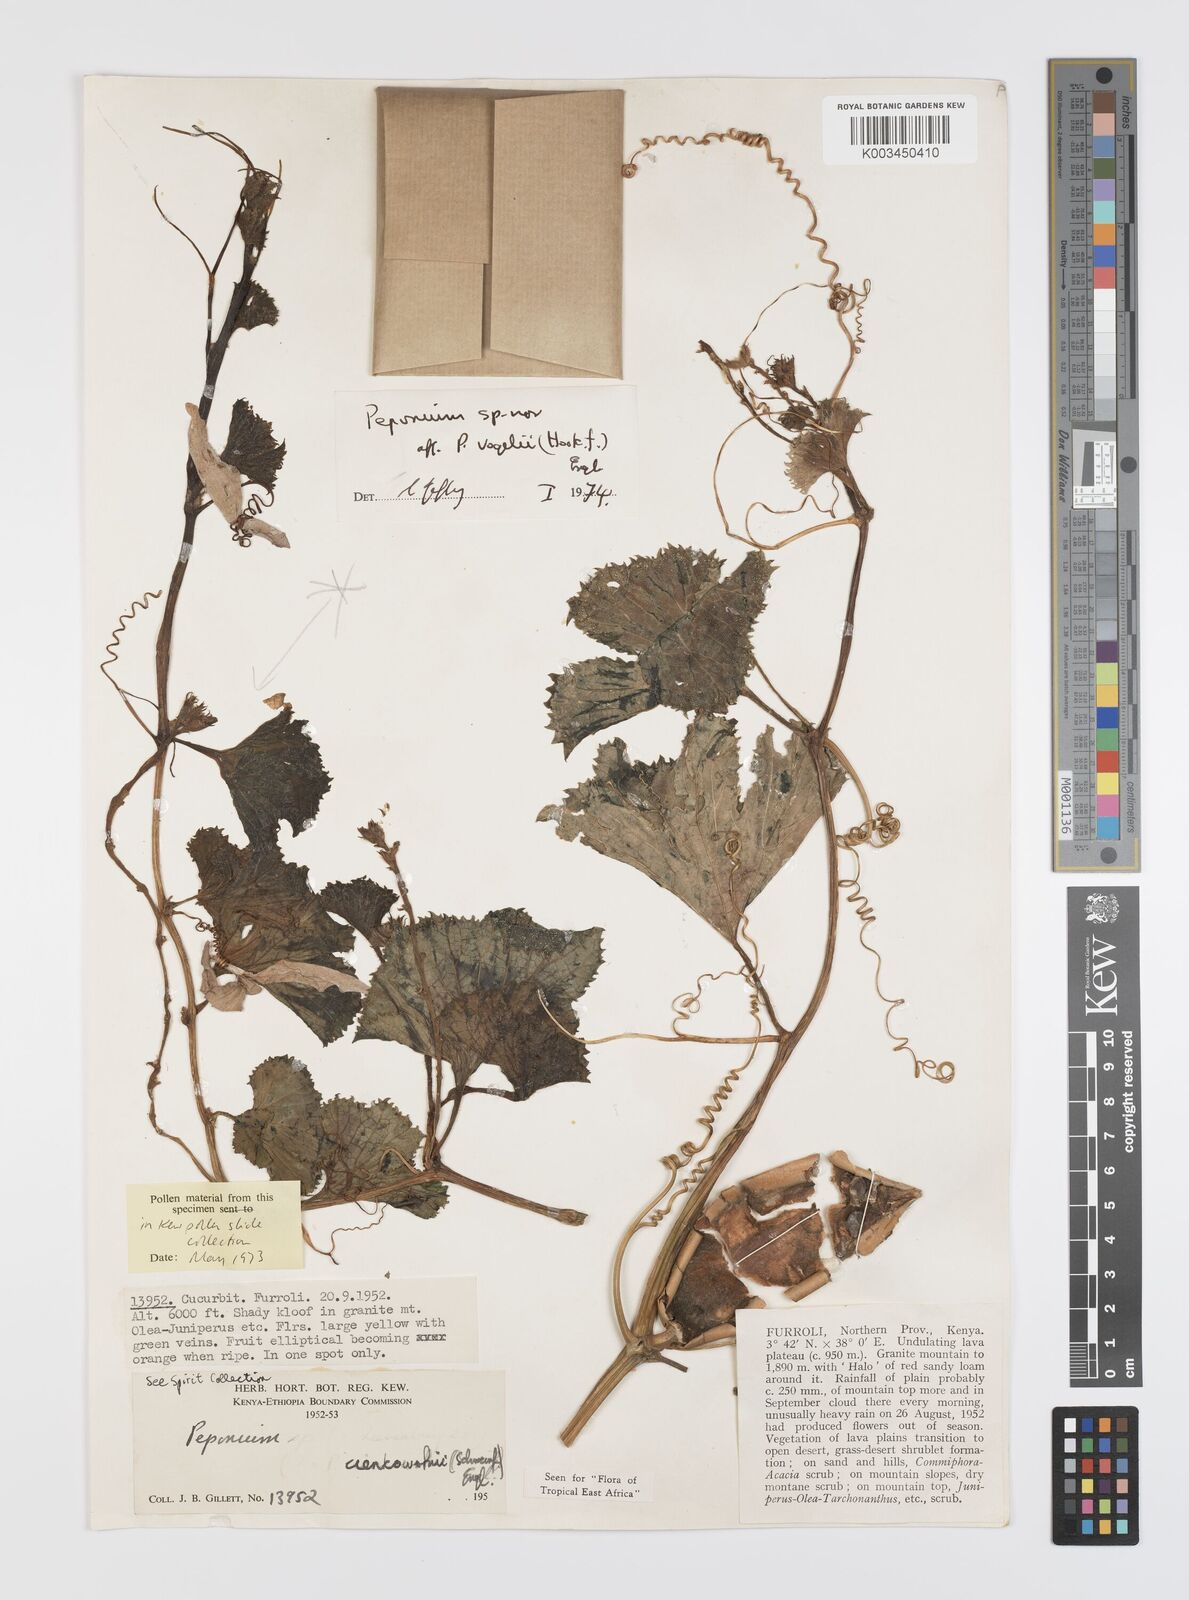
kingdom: Plantae
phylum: Tracheophyta
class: Magnoliopsida
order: Cucurbitales
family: Cucurbitaceae
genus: Peponium
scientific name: Peponium vogelii
